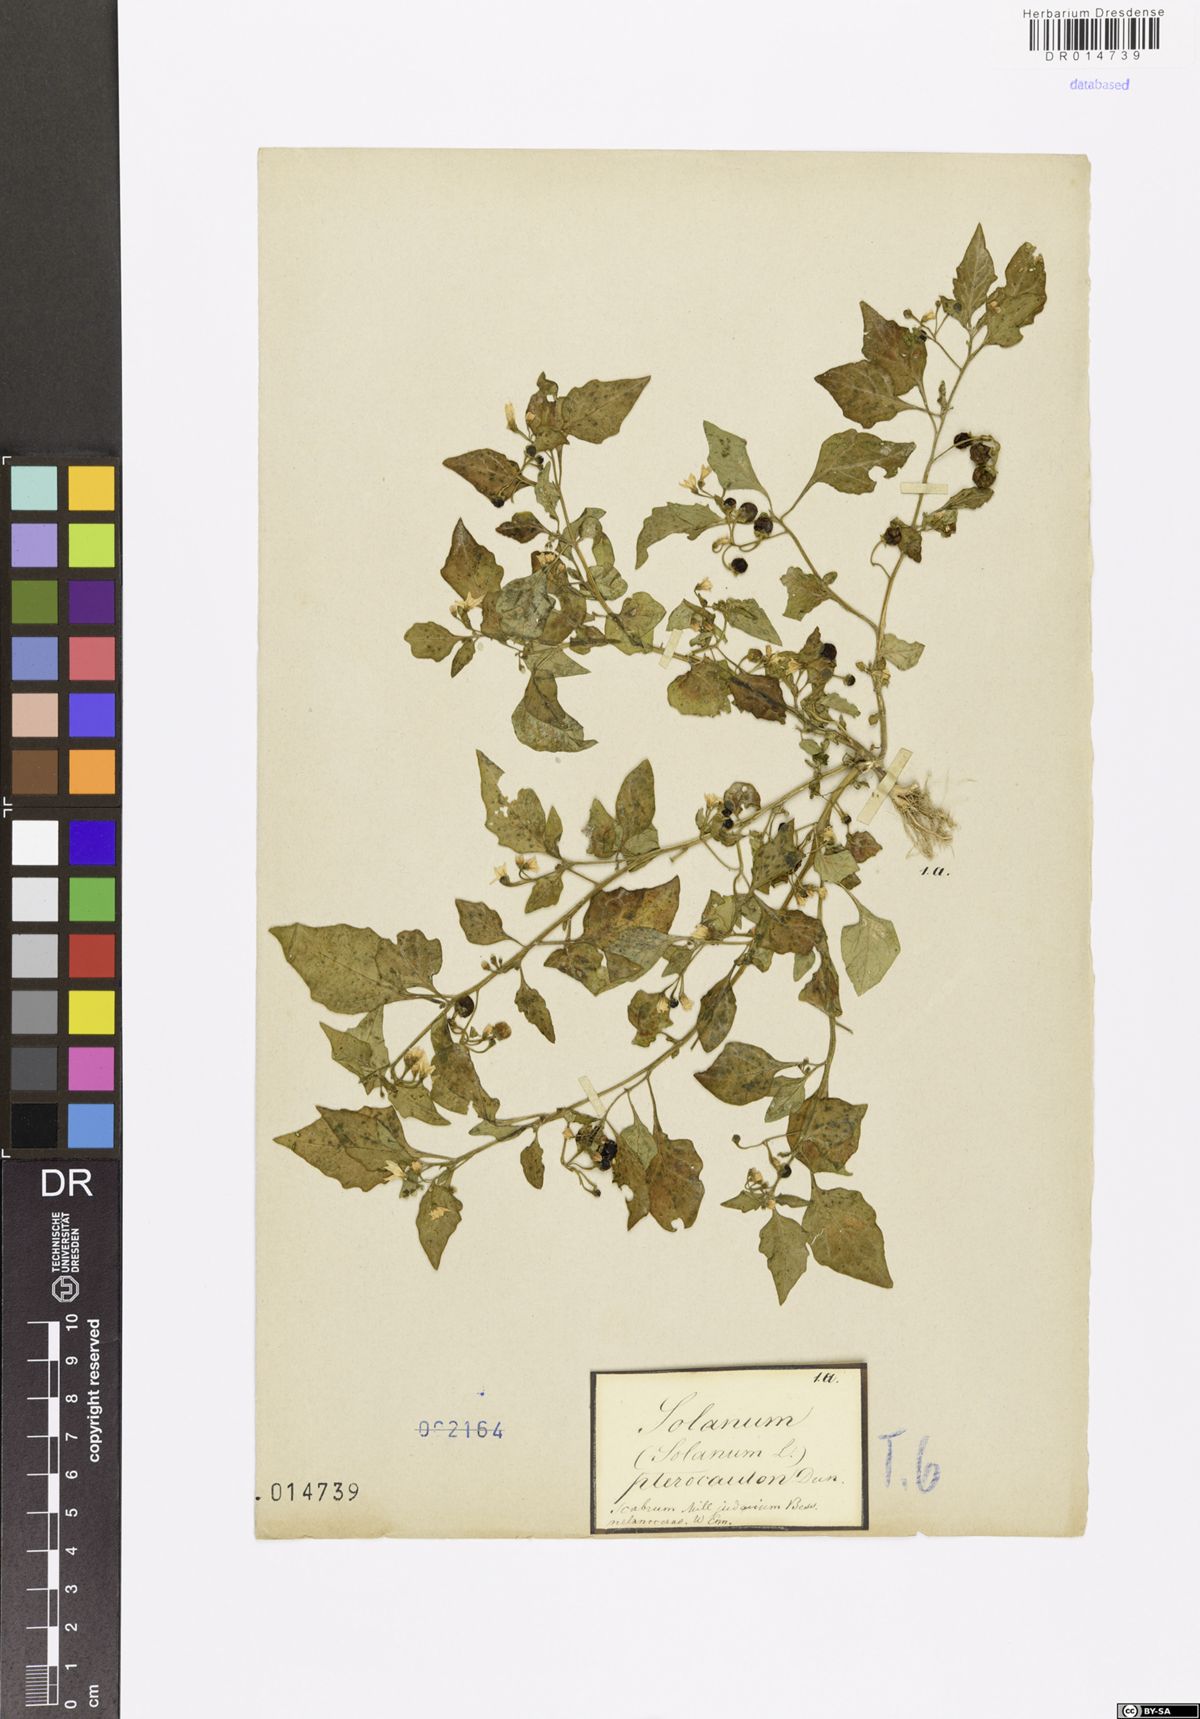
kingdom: Plantae
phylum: Tracheophyta
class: Magnoliopsida
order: Solanales
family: Solanaceae
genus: Solanum
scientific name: Solanum nigrum
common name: Black nightshade
